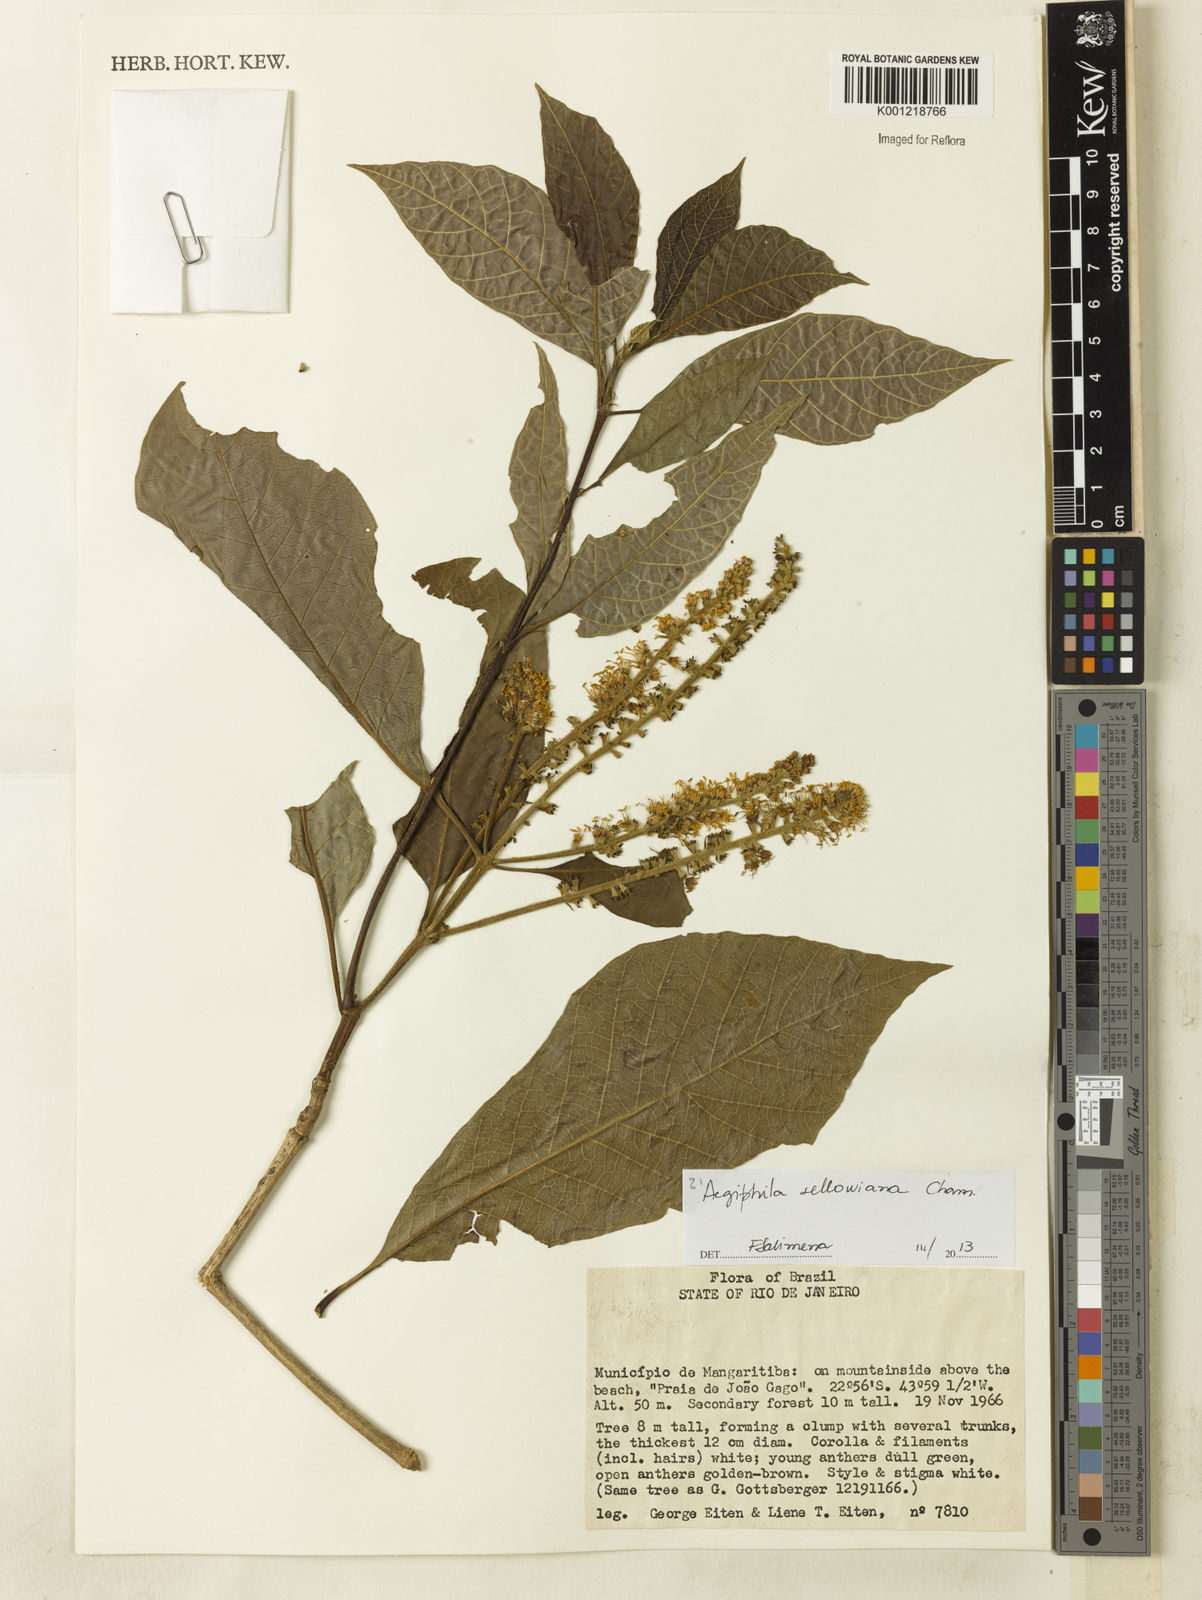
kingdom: Plantae
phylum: Tracheophyta
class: Magnoliopsida
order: Lamiales
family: Lamiaceae
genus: Aegiphila
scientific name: Aegiphila verticillata
